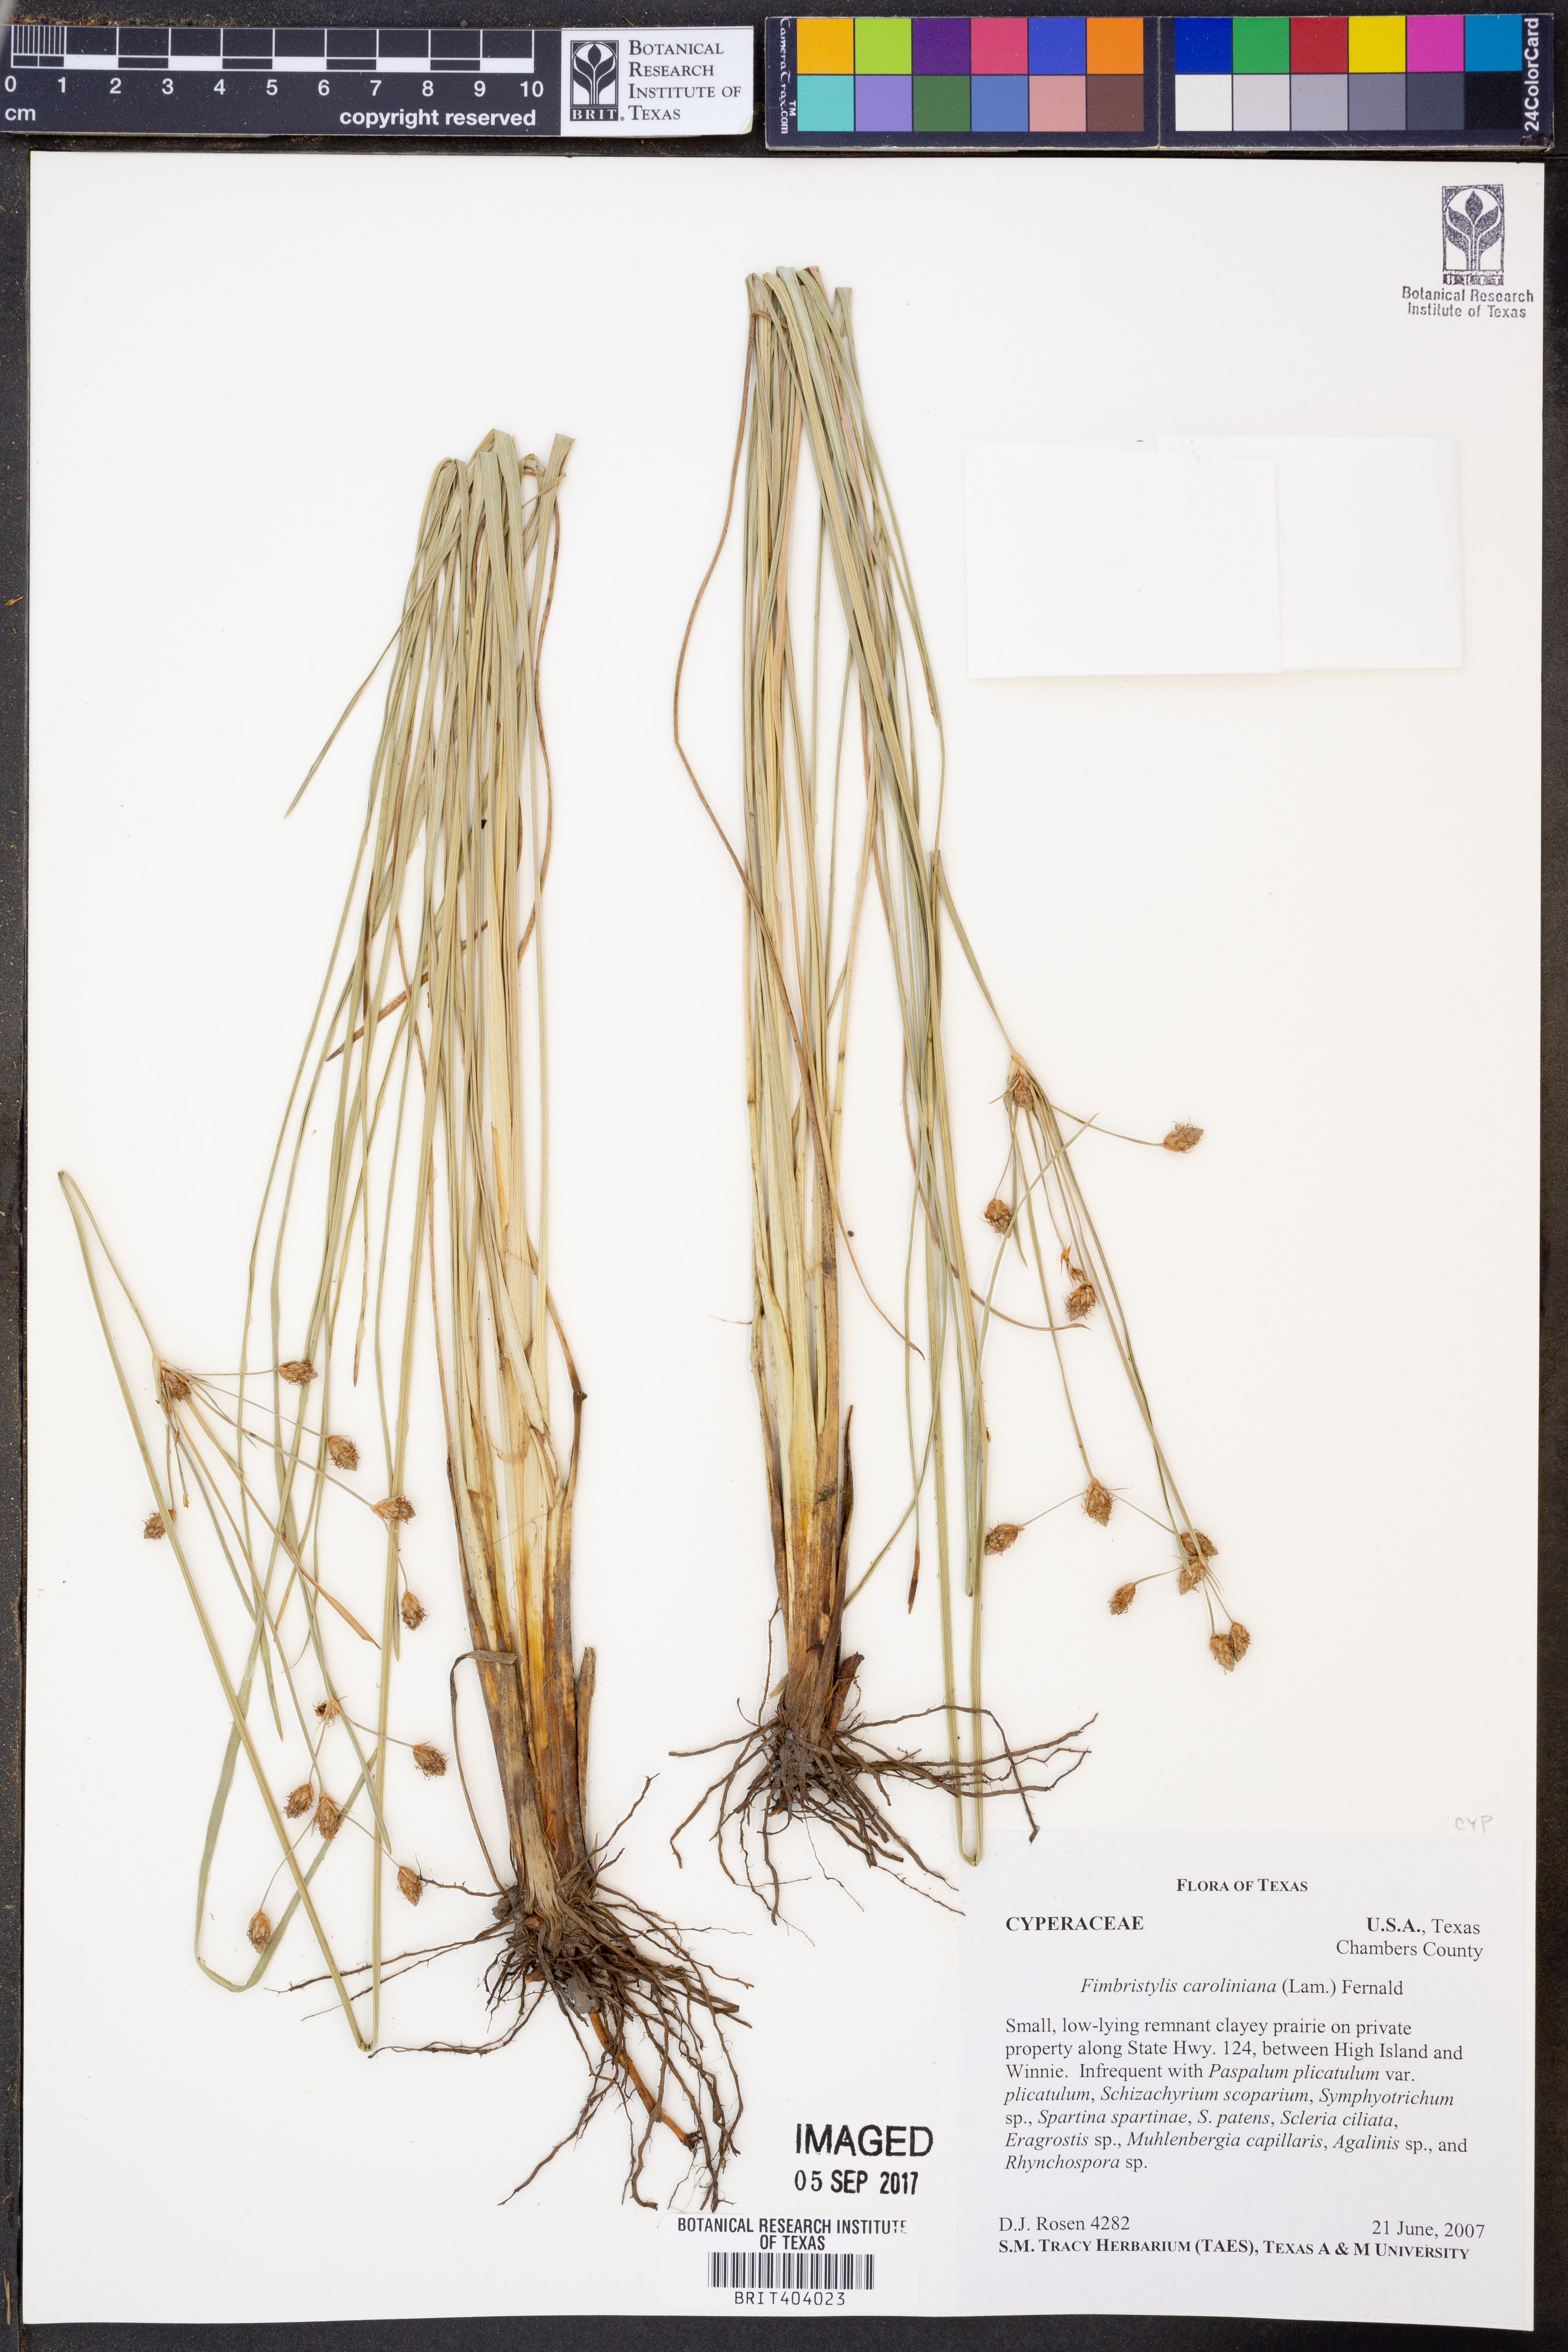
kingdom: Plantae
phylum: Tracheophyta
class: Liliopsida
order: Poales
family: Cyperaceae
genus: Fimbristylis
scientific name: Fimbristylis caroliniana
